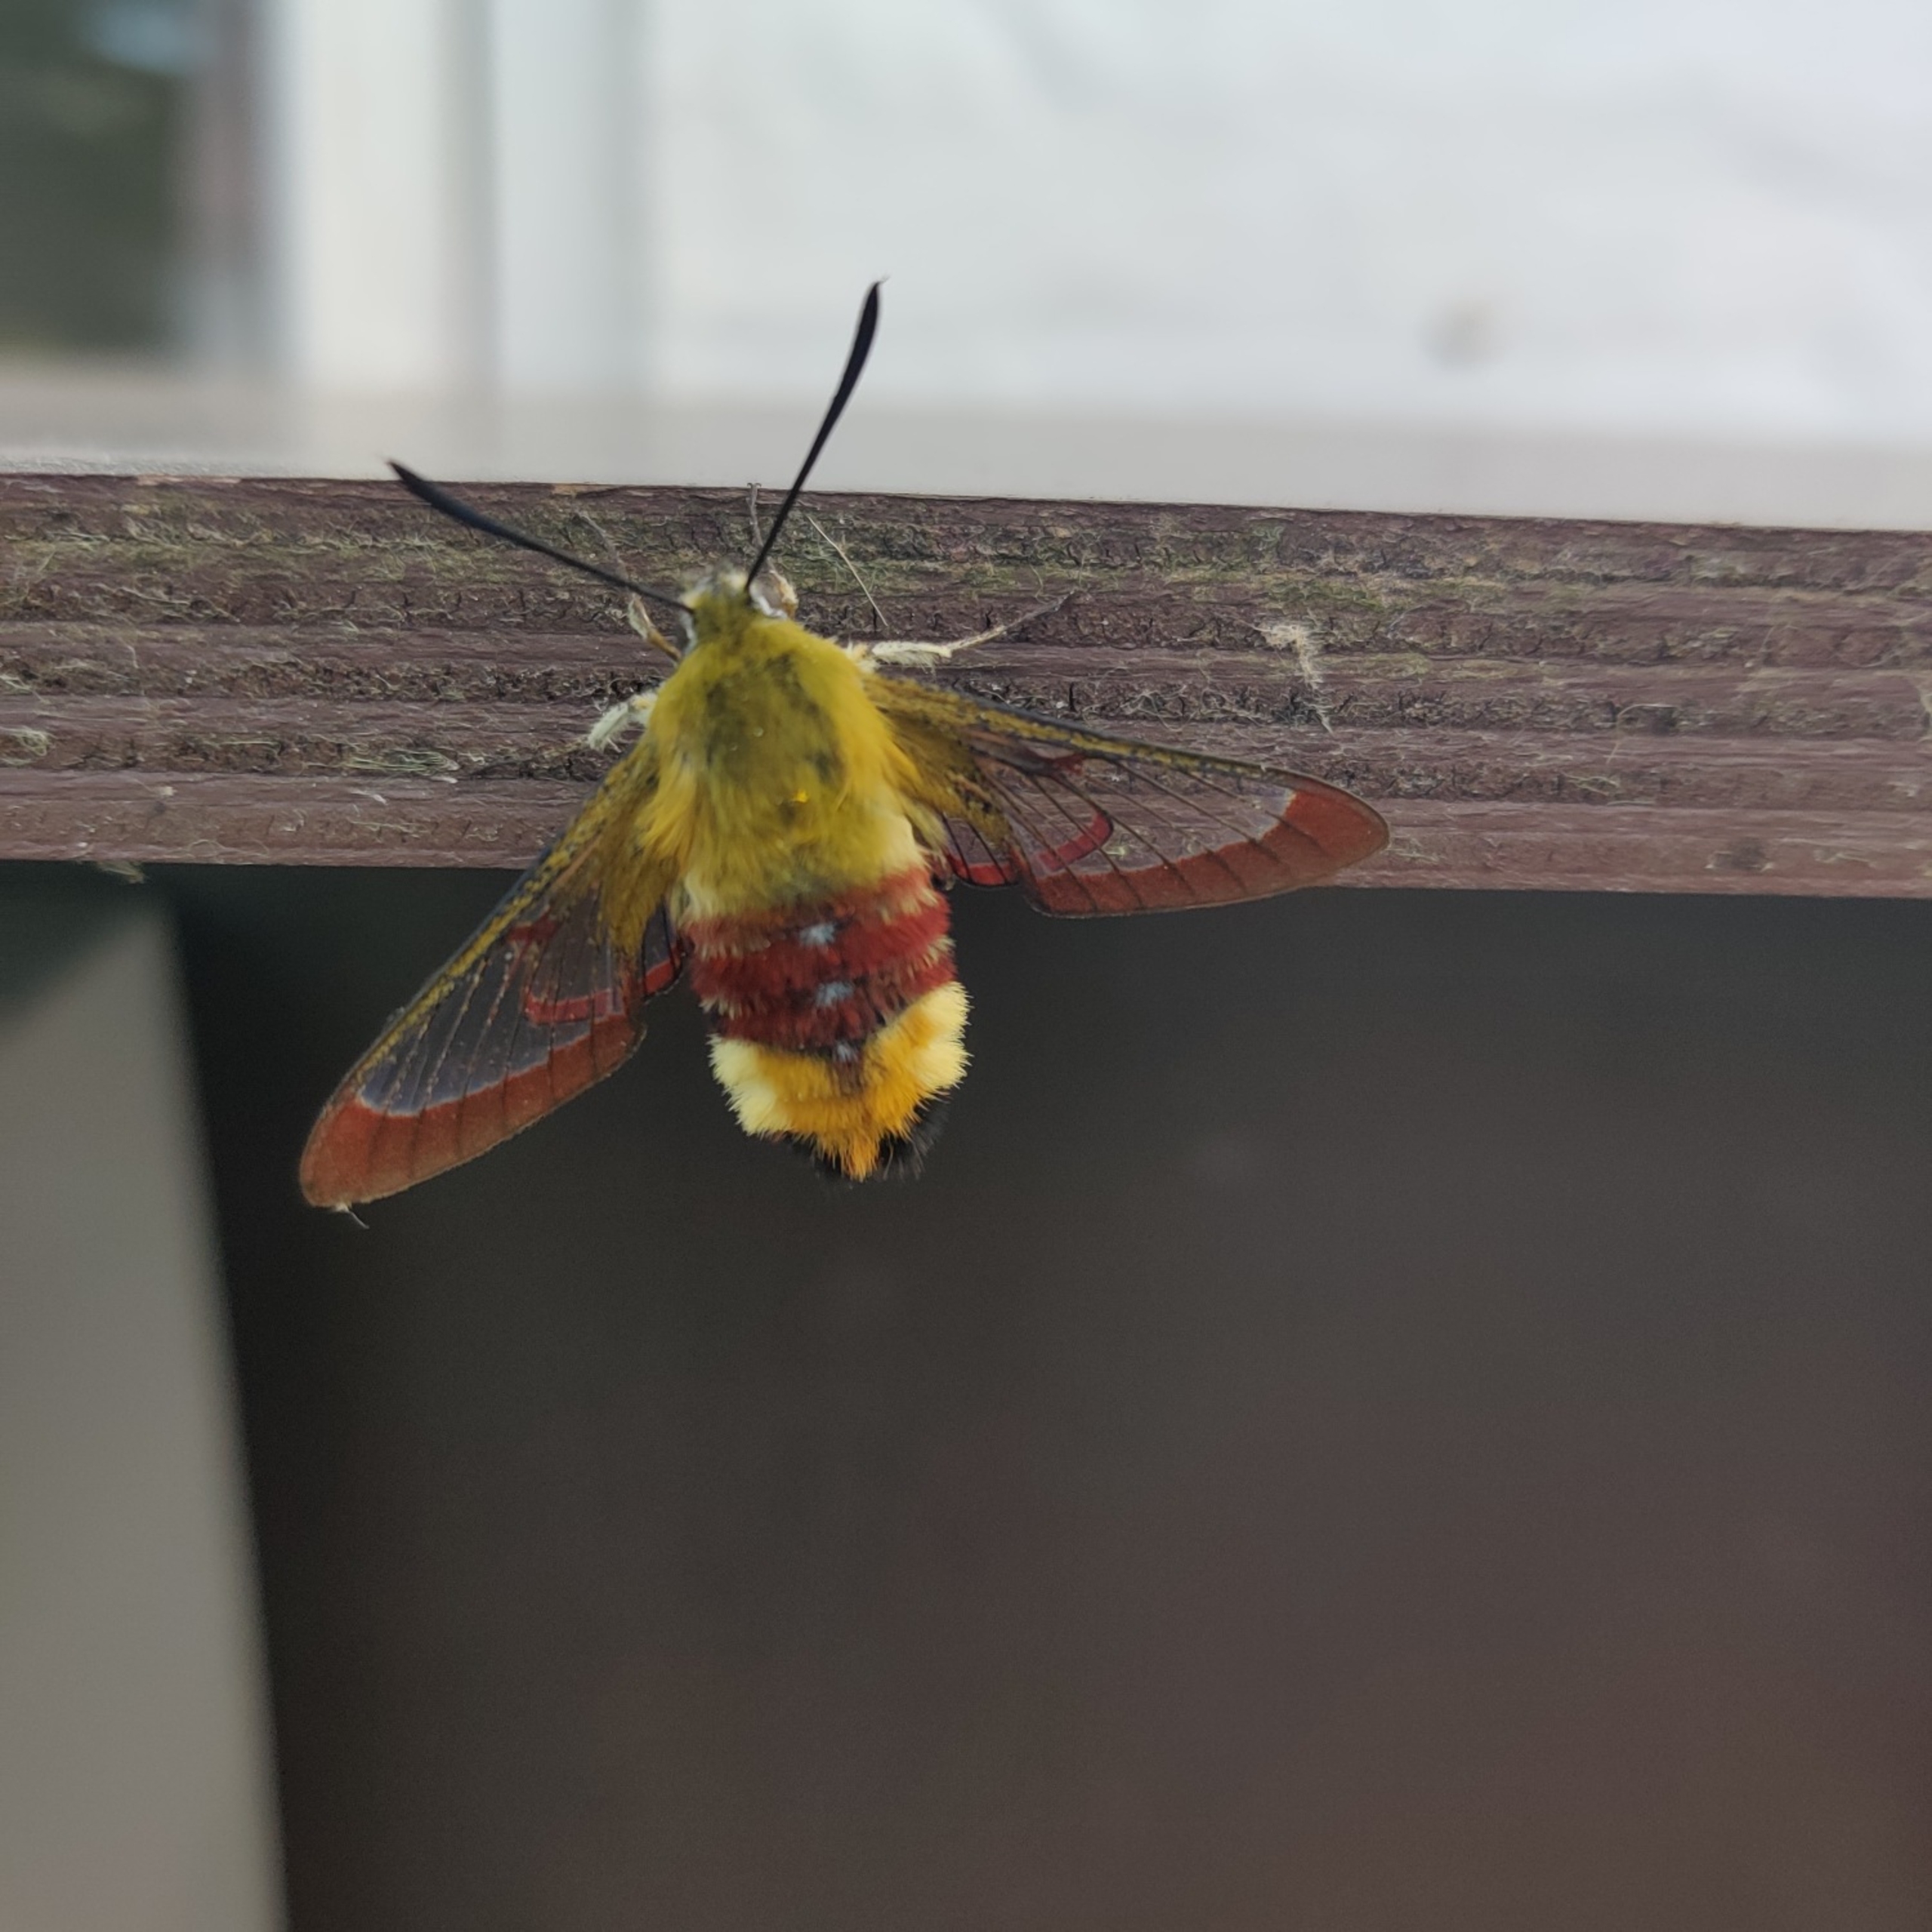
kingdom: Animalia
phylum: Arthropoda
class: Insecta
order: Lepidoptera
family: Sphingidae
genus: Hemaris
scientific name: Hemaris fuciformis
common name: Bredrandet humlebisværmer
